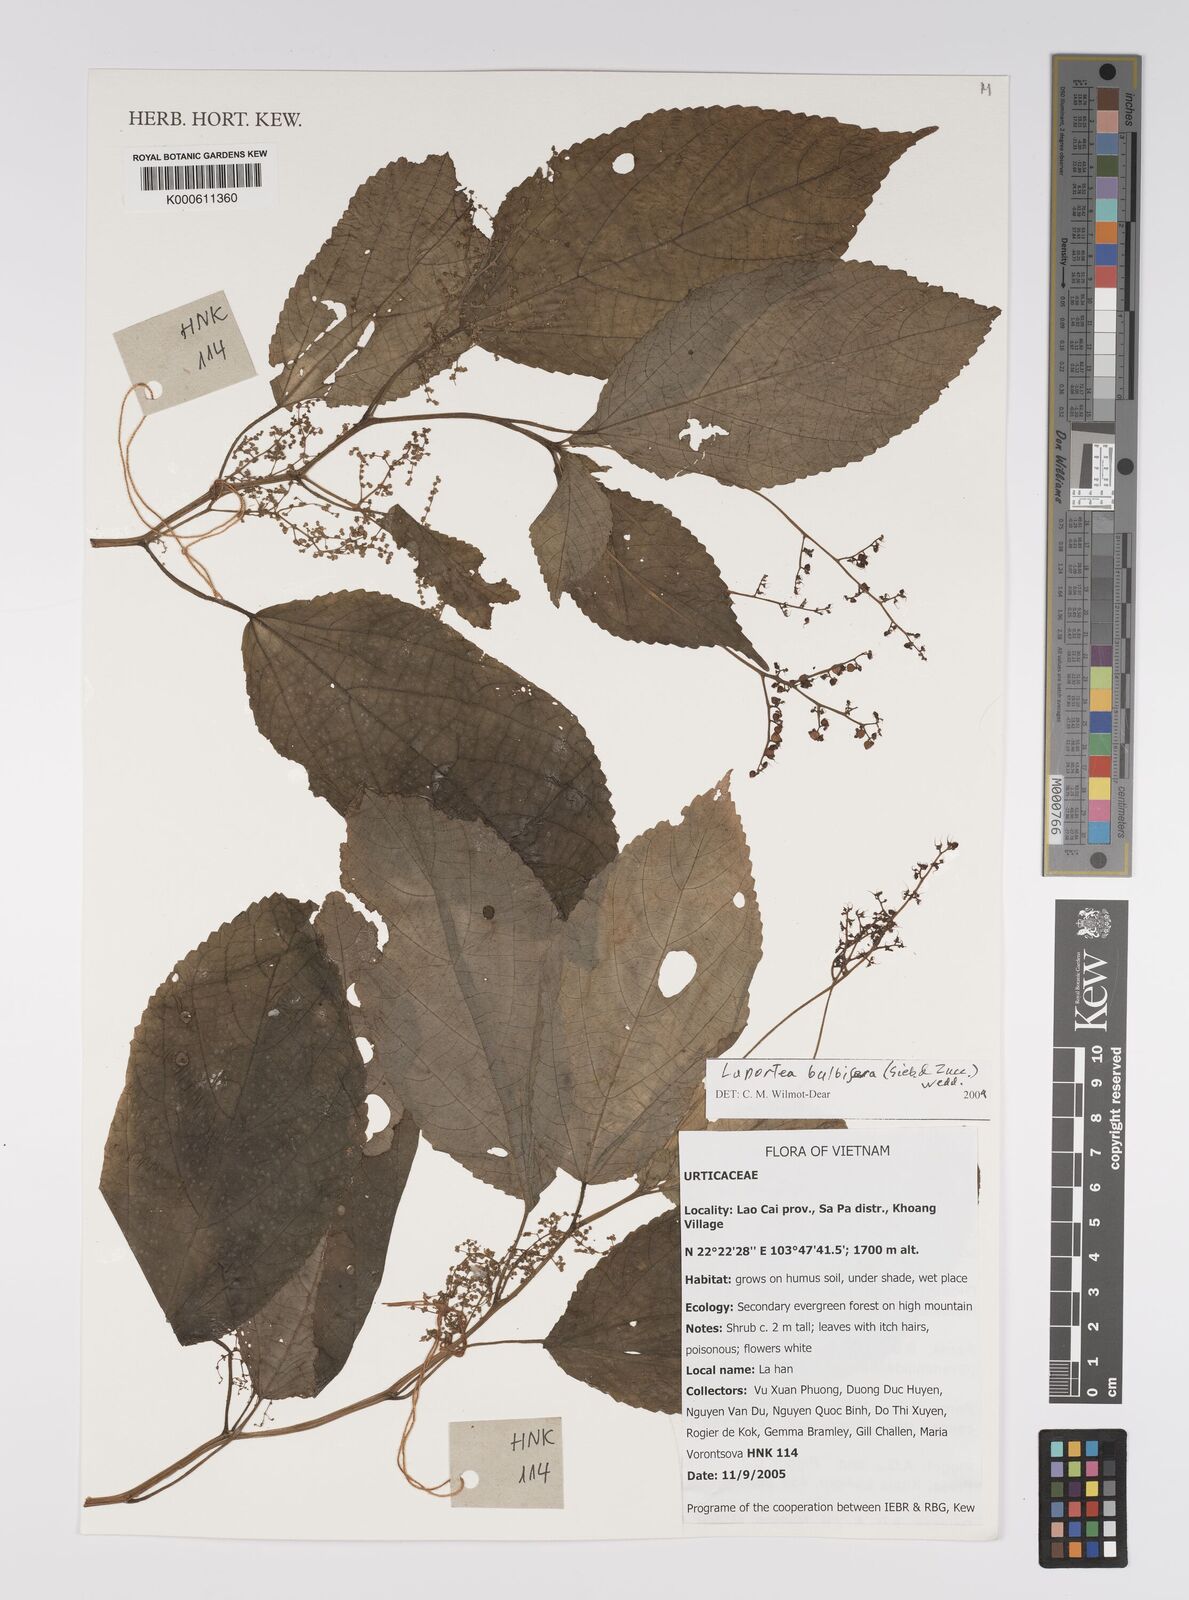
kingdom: Plantae
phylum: Tracheophyta
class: Magnoliopsida
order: Rosales
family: Urticaceae
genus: Laportea
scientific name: Laportea bulbifera
